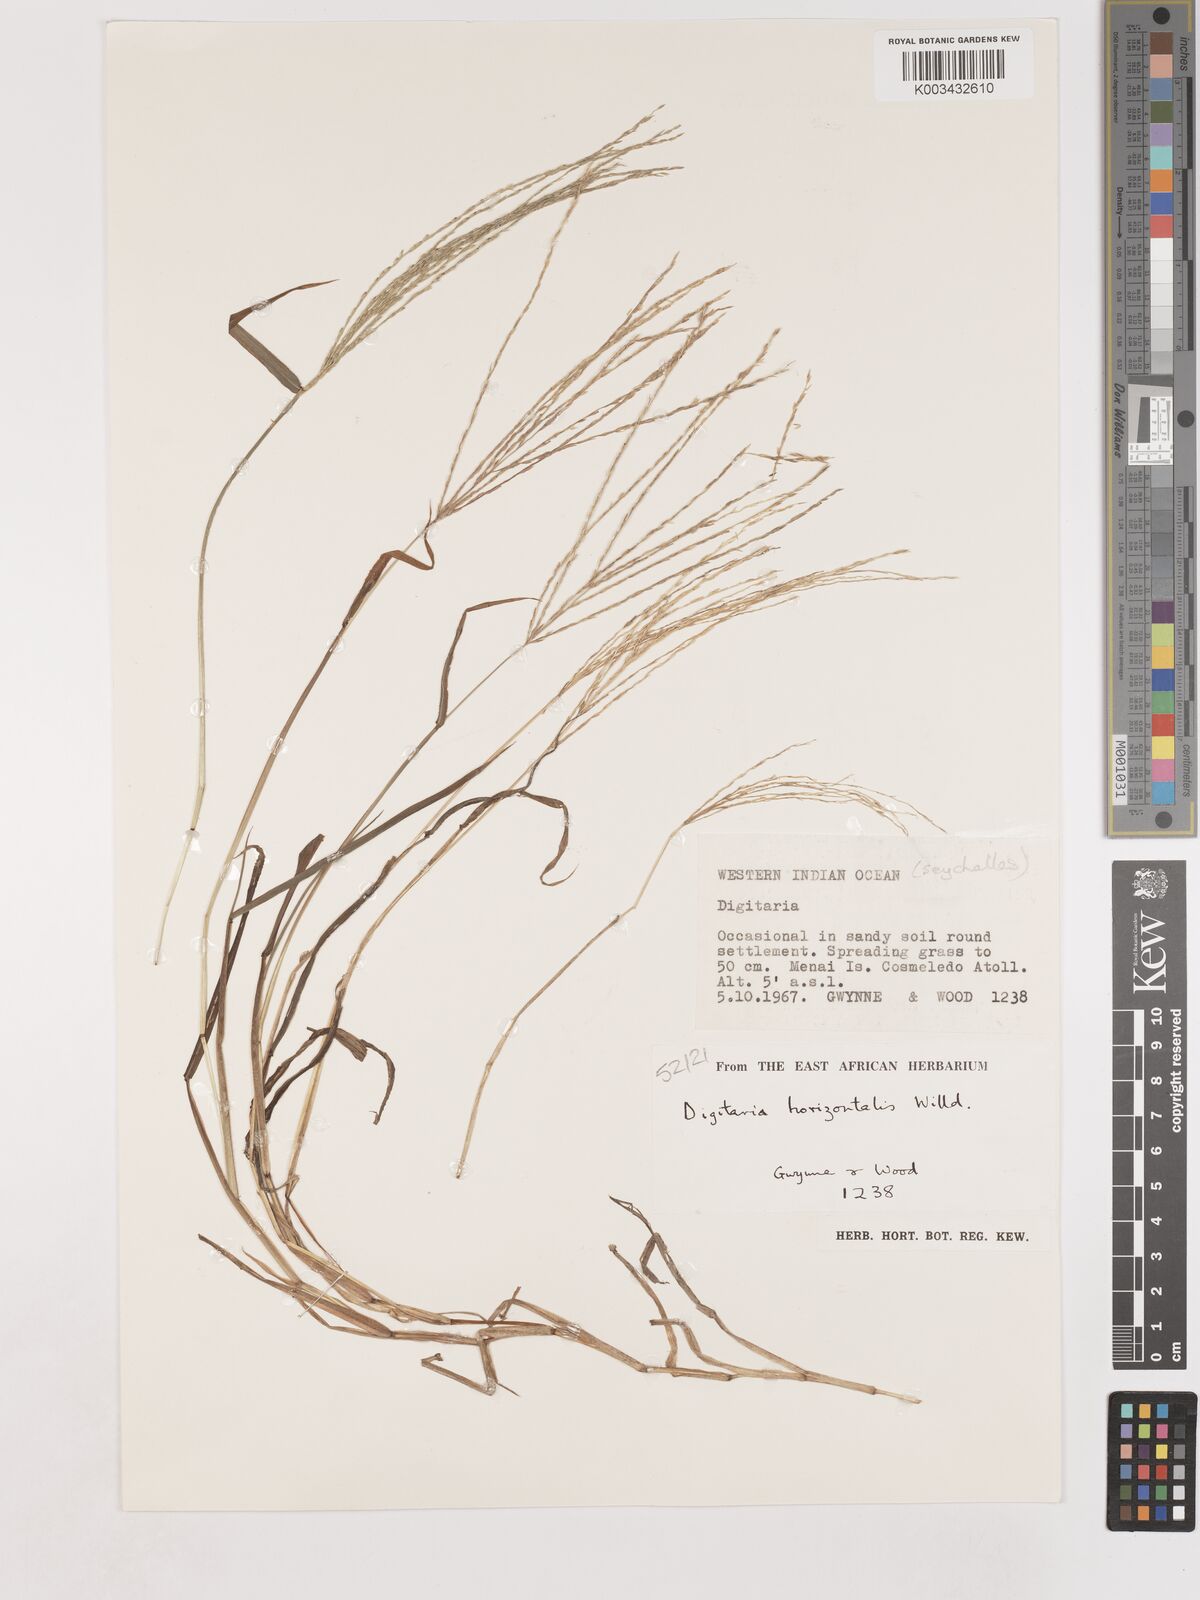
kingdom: Plantae
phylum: Tracheophyta
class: Liliopsida
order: Poales
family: Poaceae
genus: Digitaria
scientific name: Digitaria horizontalis
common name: Jamaican crabgrass
